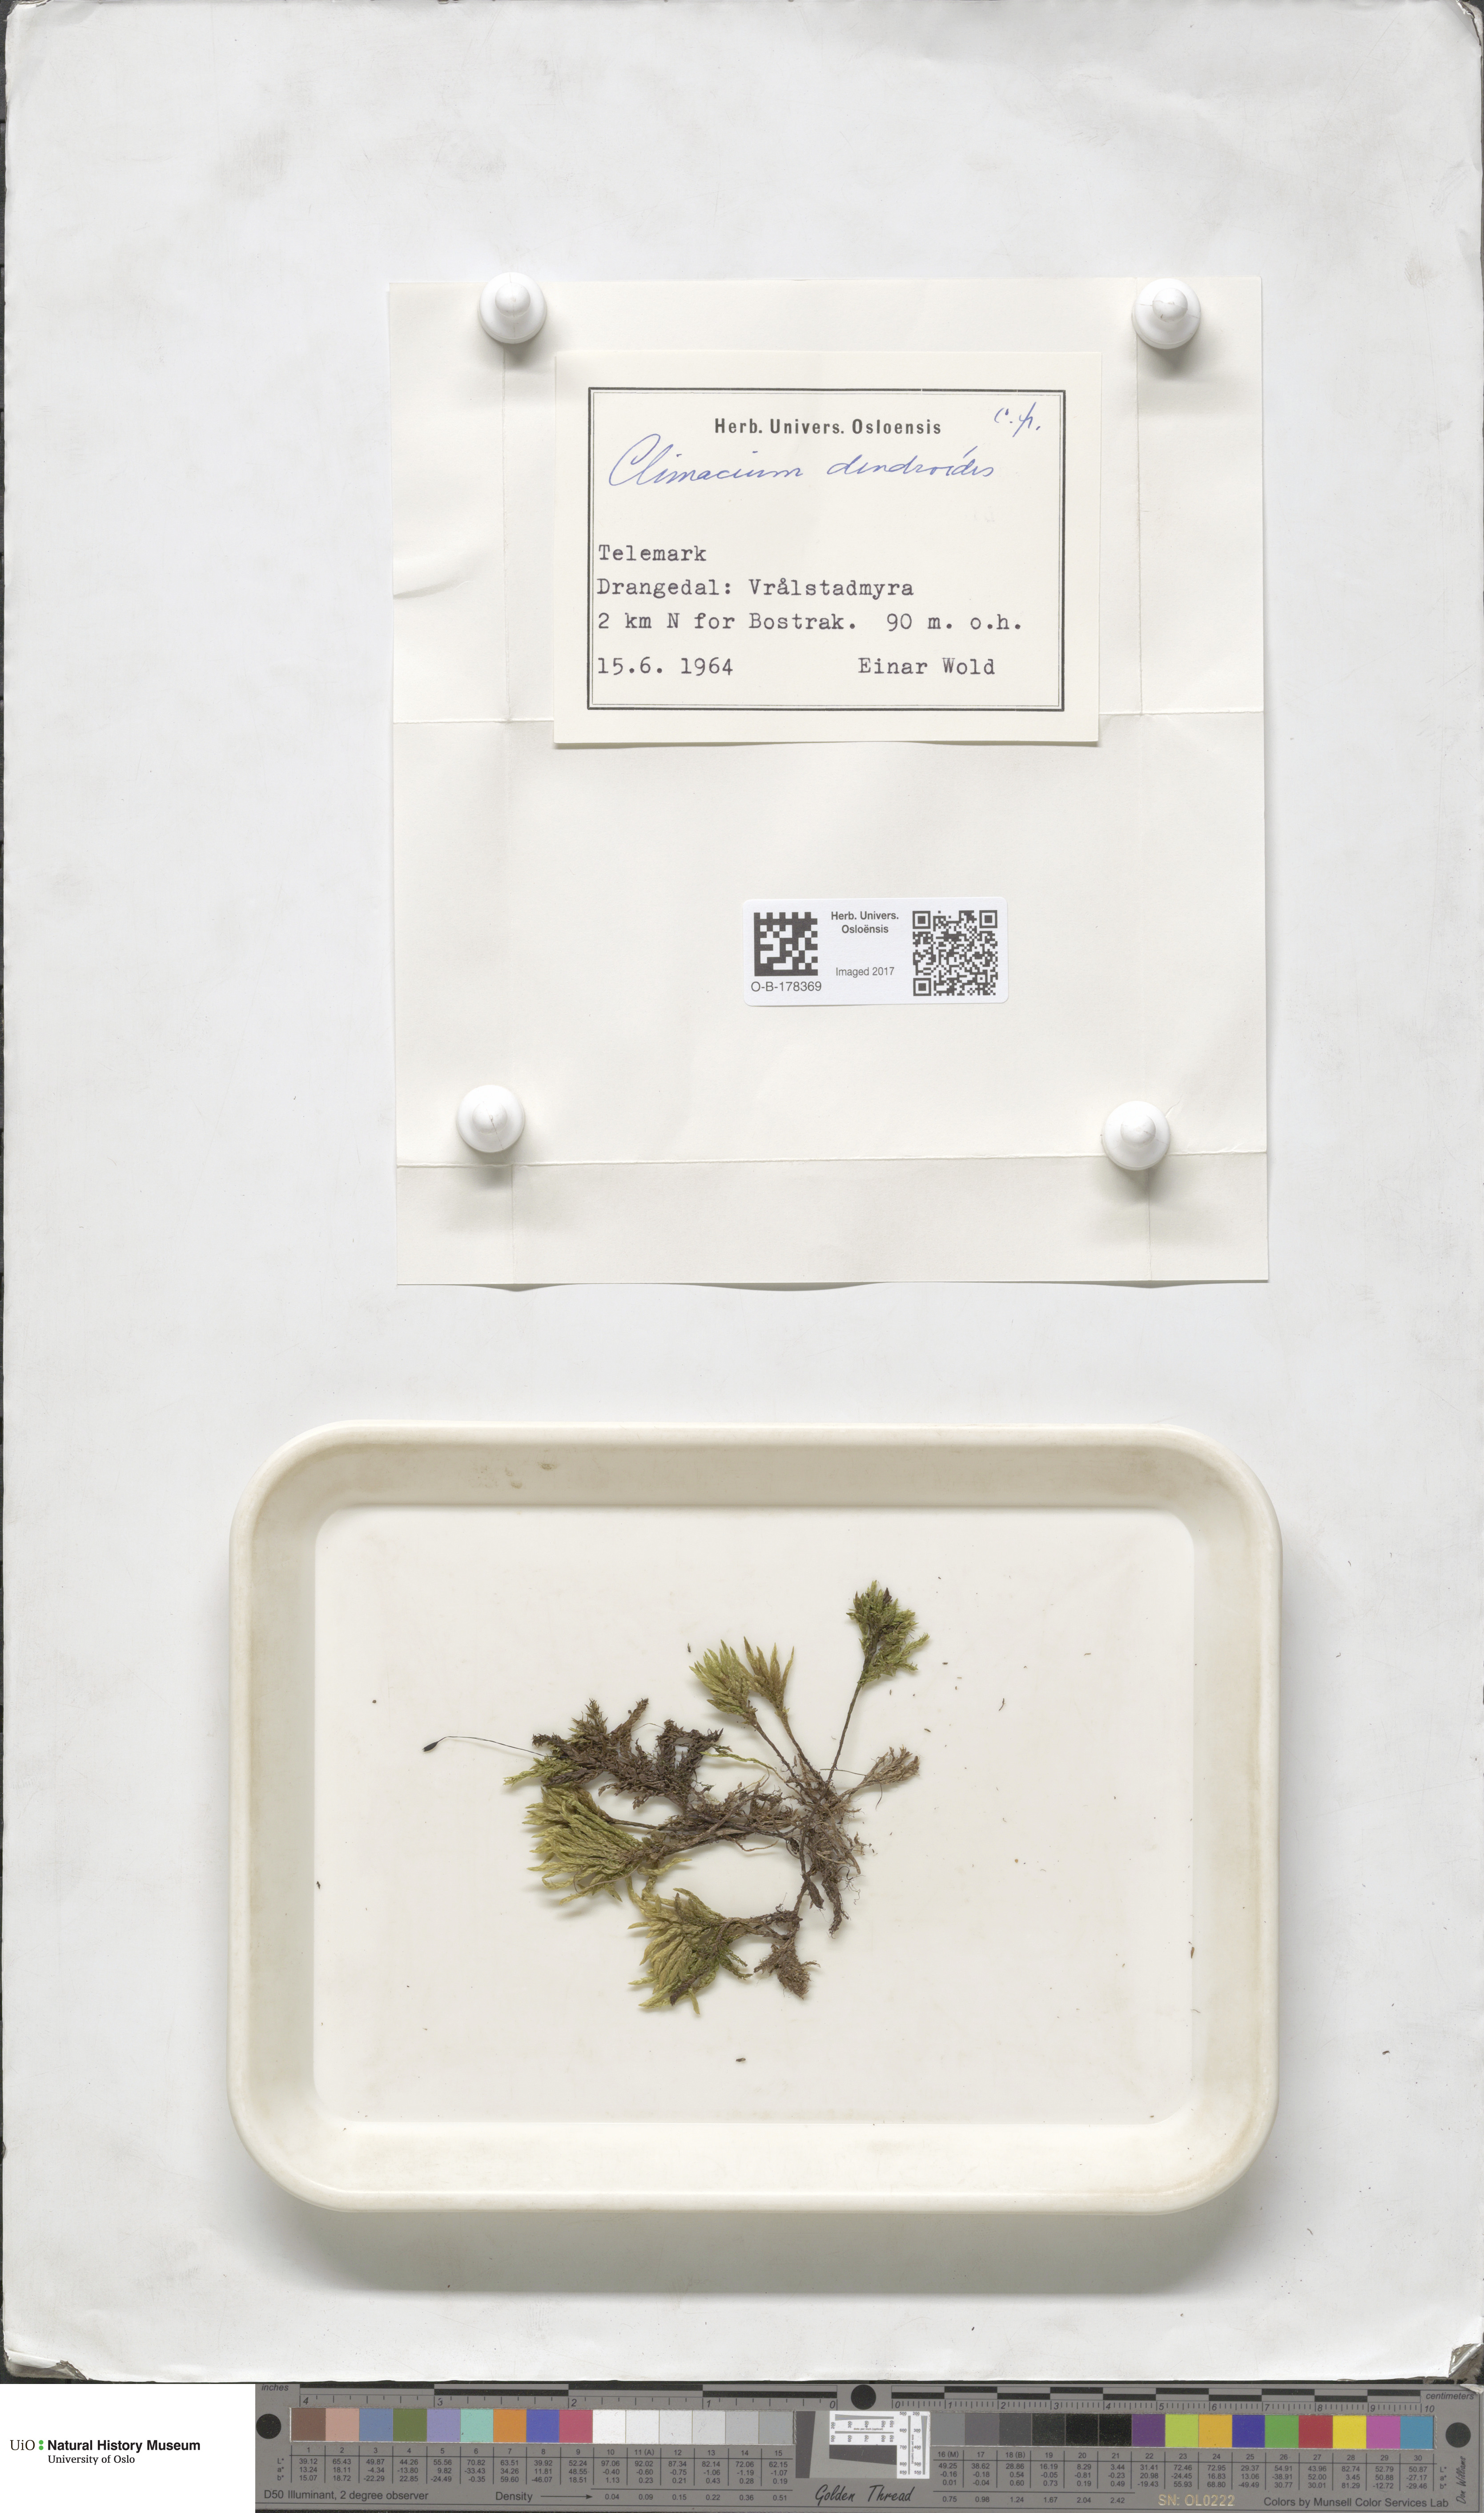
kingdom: Plantae
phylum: Bryophyta
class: Bryopsida
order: Hypnales
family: Climaciaceae
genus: Climacium
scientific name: Climacium dendroides
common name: Northern tree moss
